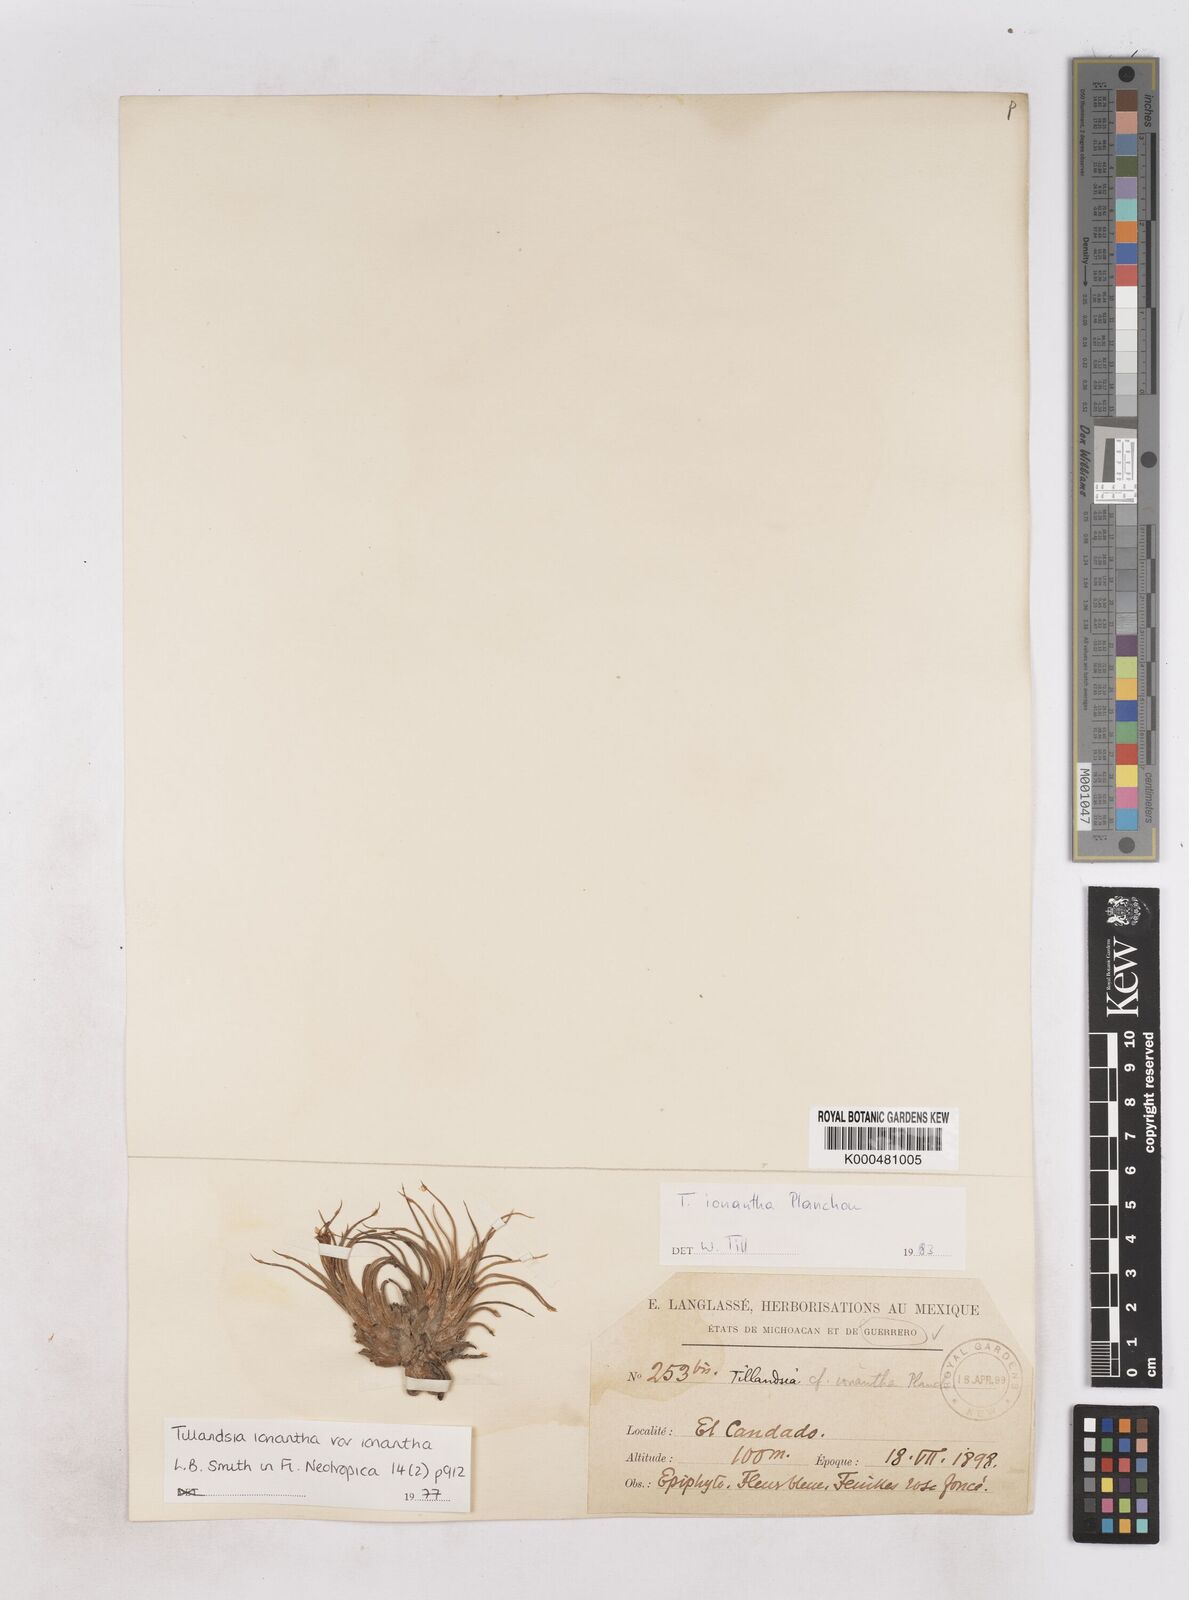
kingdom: Plantae
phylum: Tracheophyta
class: Liliopsida
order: Poales
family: Bromeliaceae
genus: Tillandsia
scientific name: Tillandsia ionantha
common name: Sky plant
